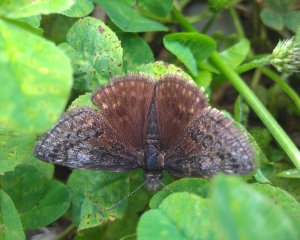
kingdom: Animalia
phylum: Arthropoda
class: Insecta
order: Lepidoptera
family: Hesperiidae
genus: Erynnis
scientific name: Erynnis icelus
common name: Dreamy Duskywing
